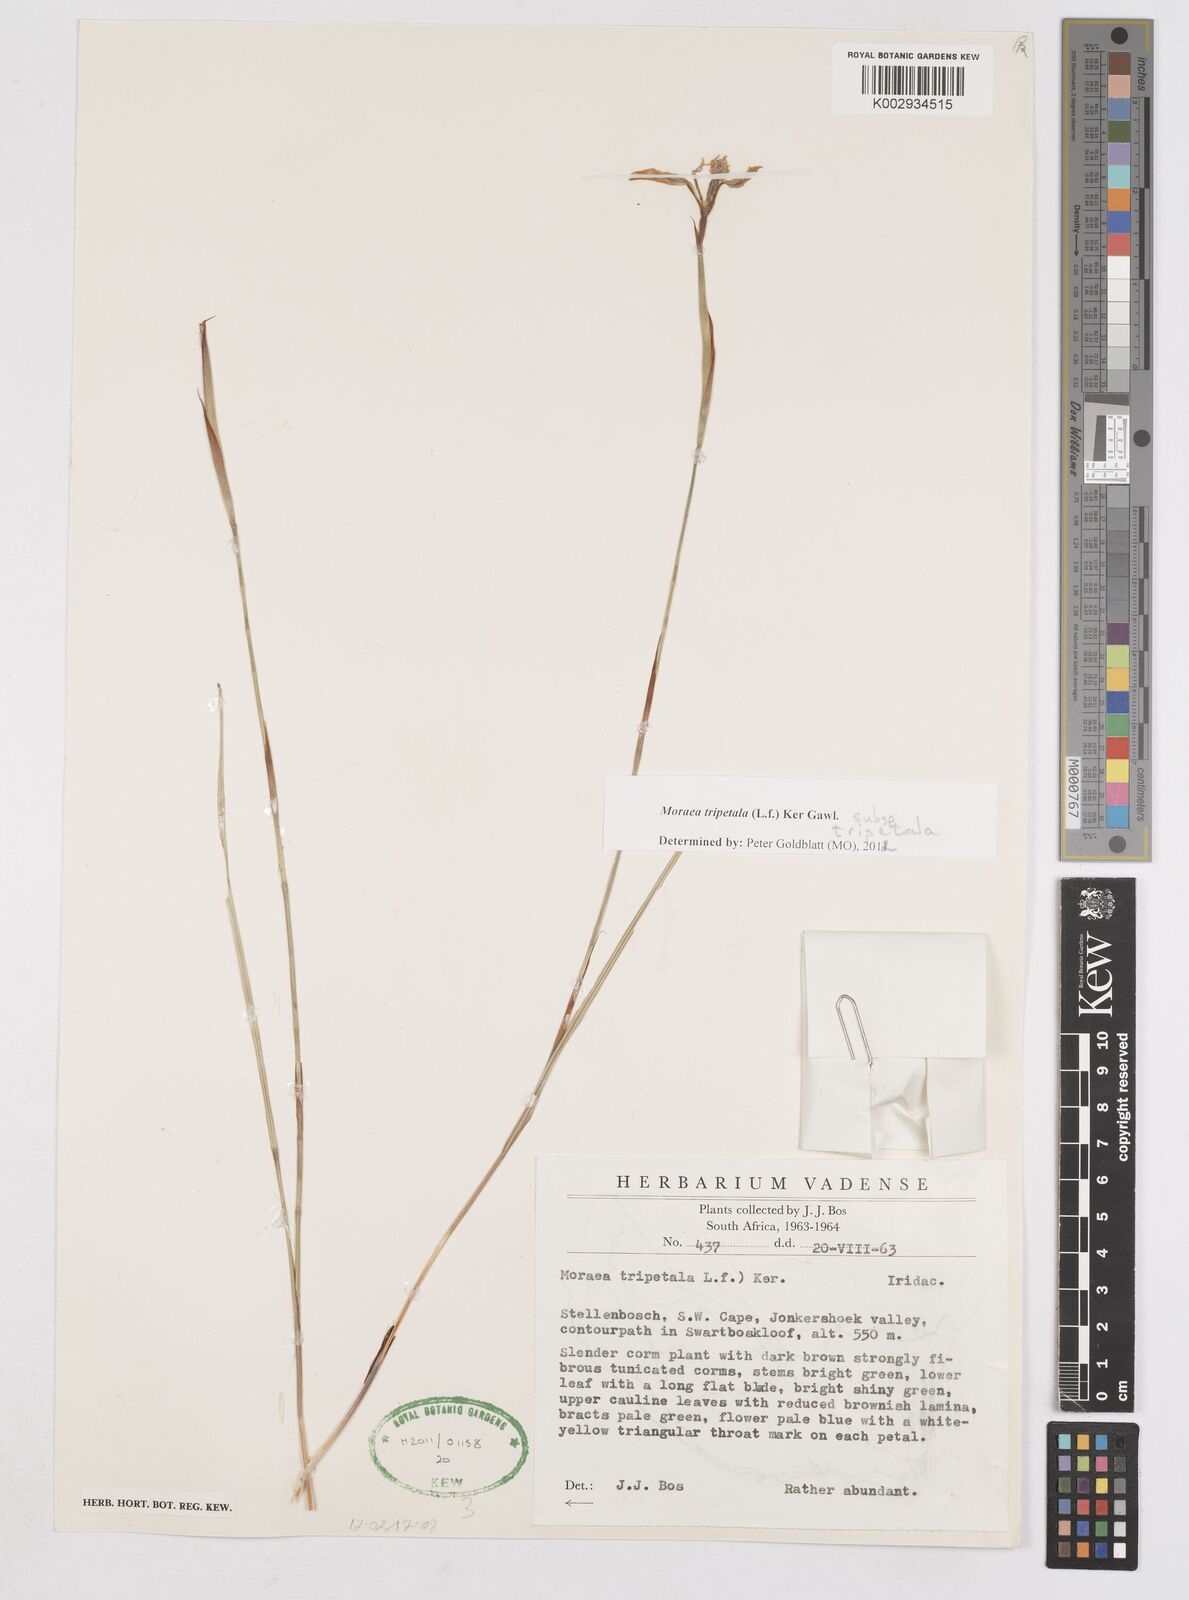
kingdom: Plantae
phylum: Tracheophyta
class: Liliopsida
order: Asparagales
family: Iridaceae
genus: Moraea
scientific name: Moraea tripetala
